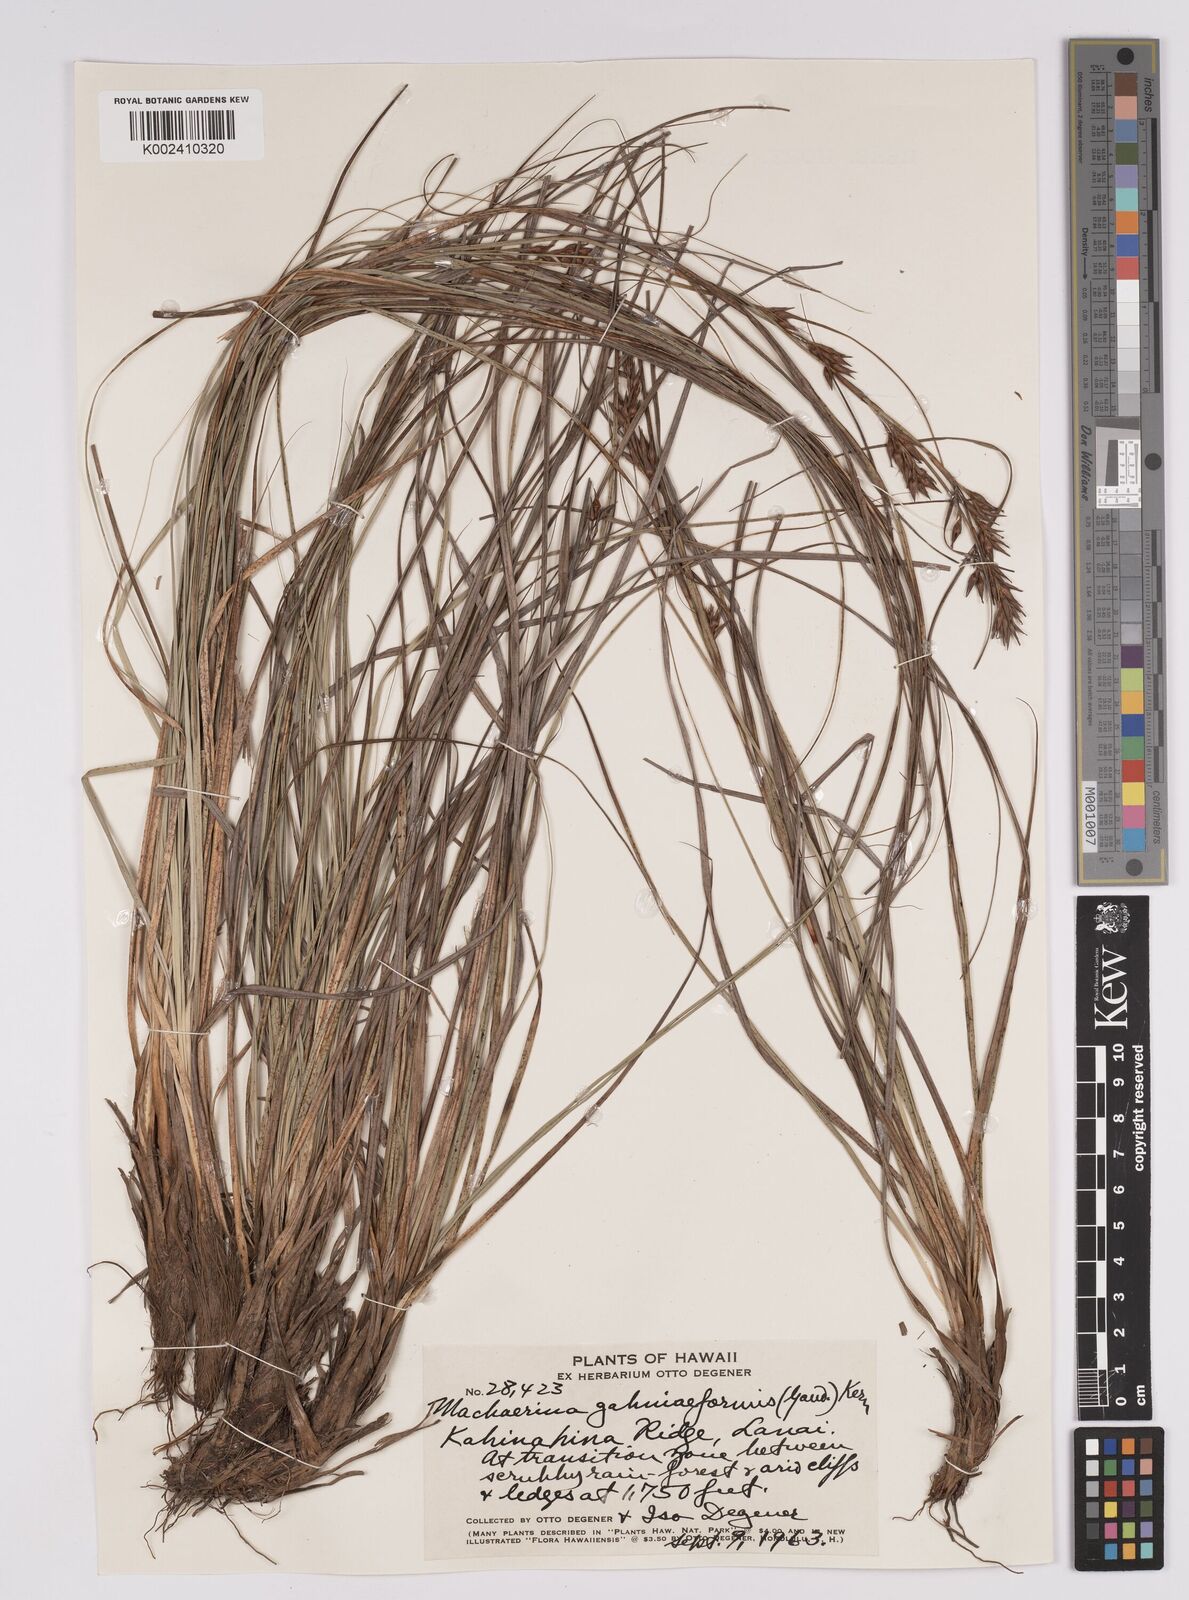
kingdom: Plantae
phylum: Tracheophyta
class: Liliopsida
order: Poales
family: Cyperaceae
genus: Morelotia
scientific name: Morelotia gahniiformis
